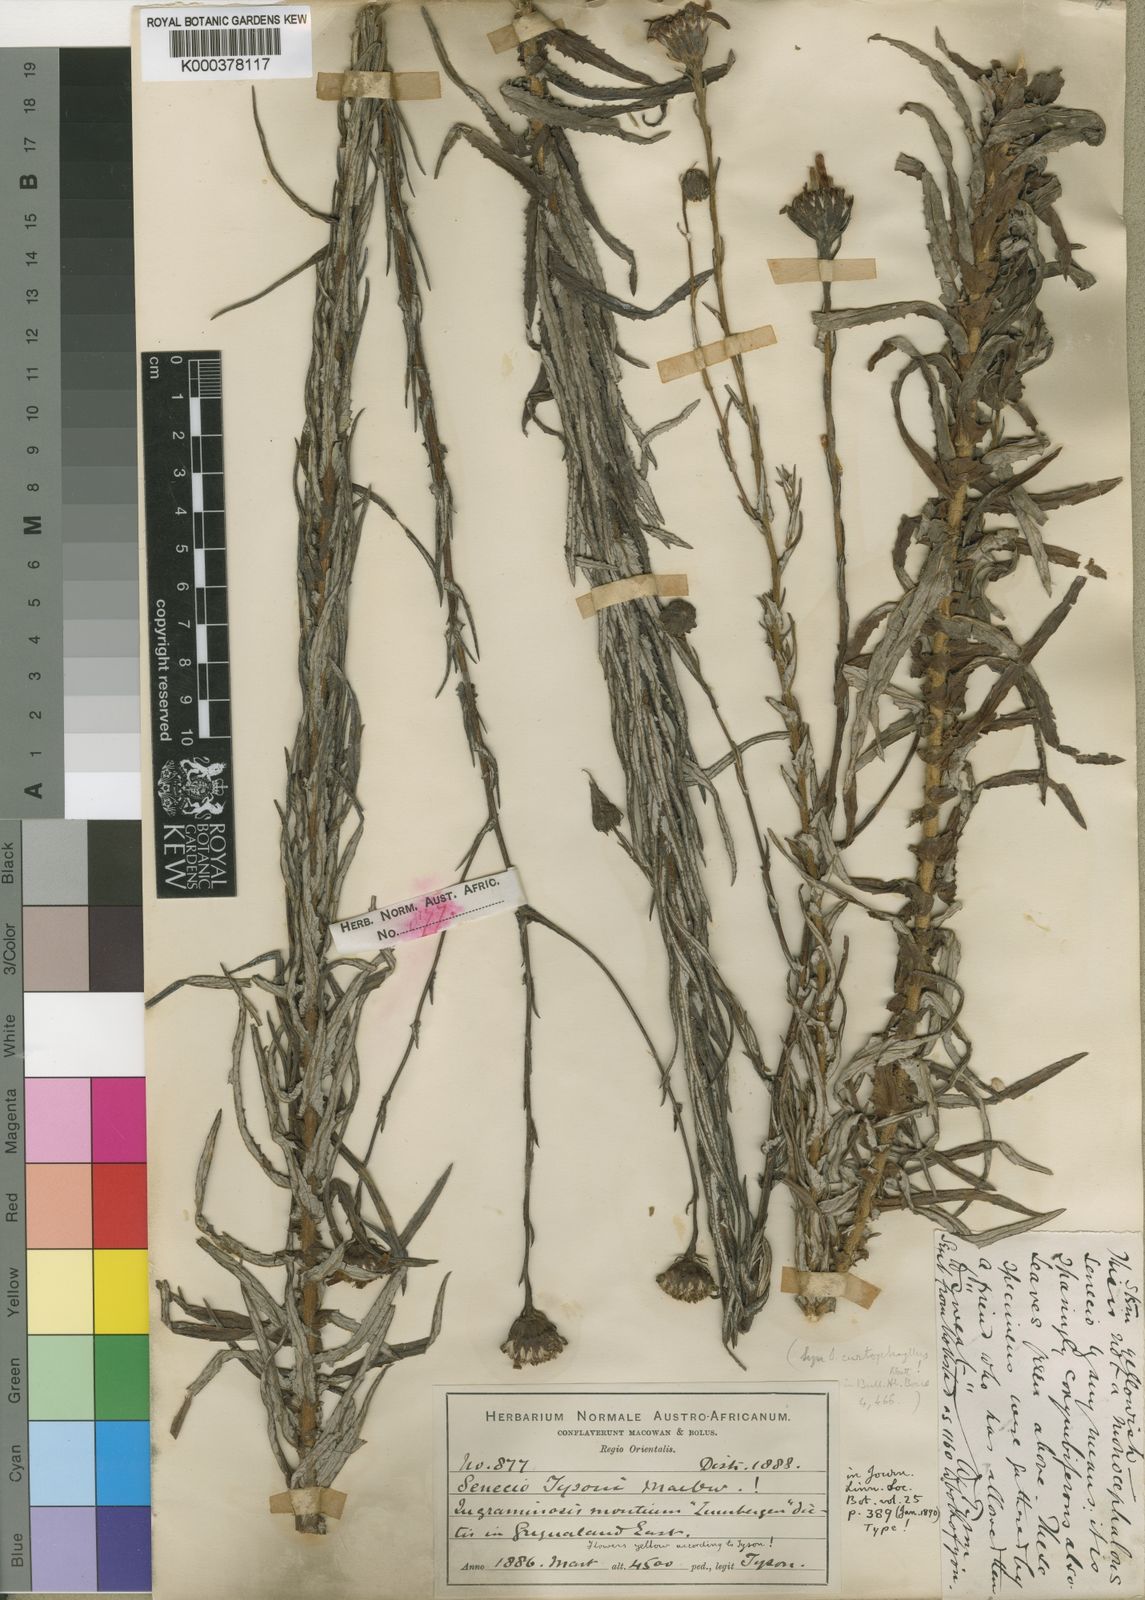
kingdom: Plantae
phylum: Tracheophyta
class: Magnoliopsida
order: Asterales
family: Asteraceae
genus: Senecio
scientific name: Senecio rigidus
